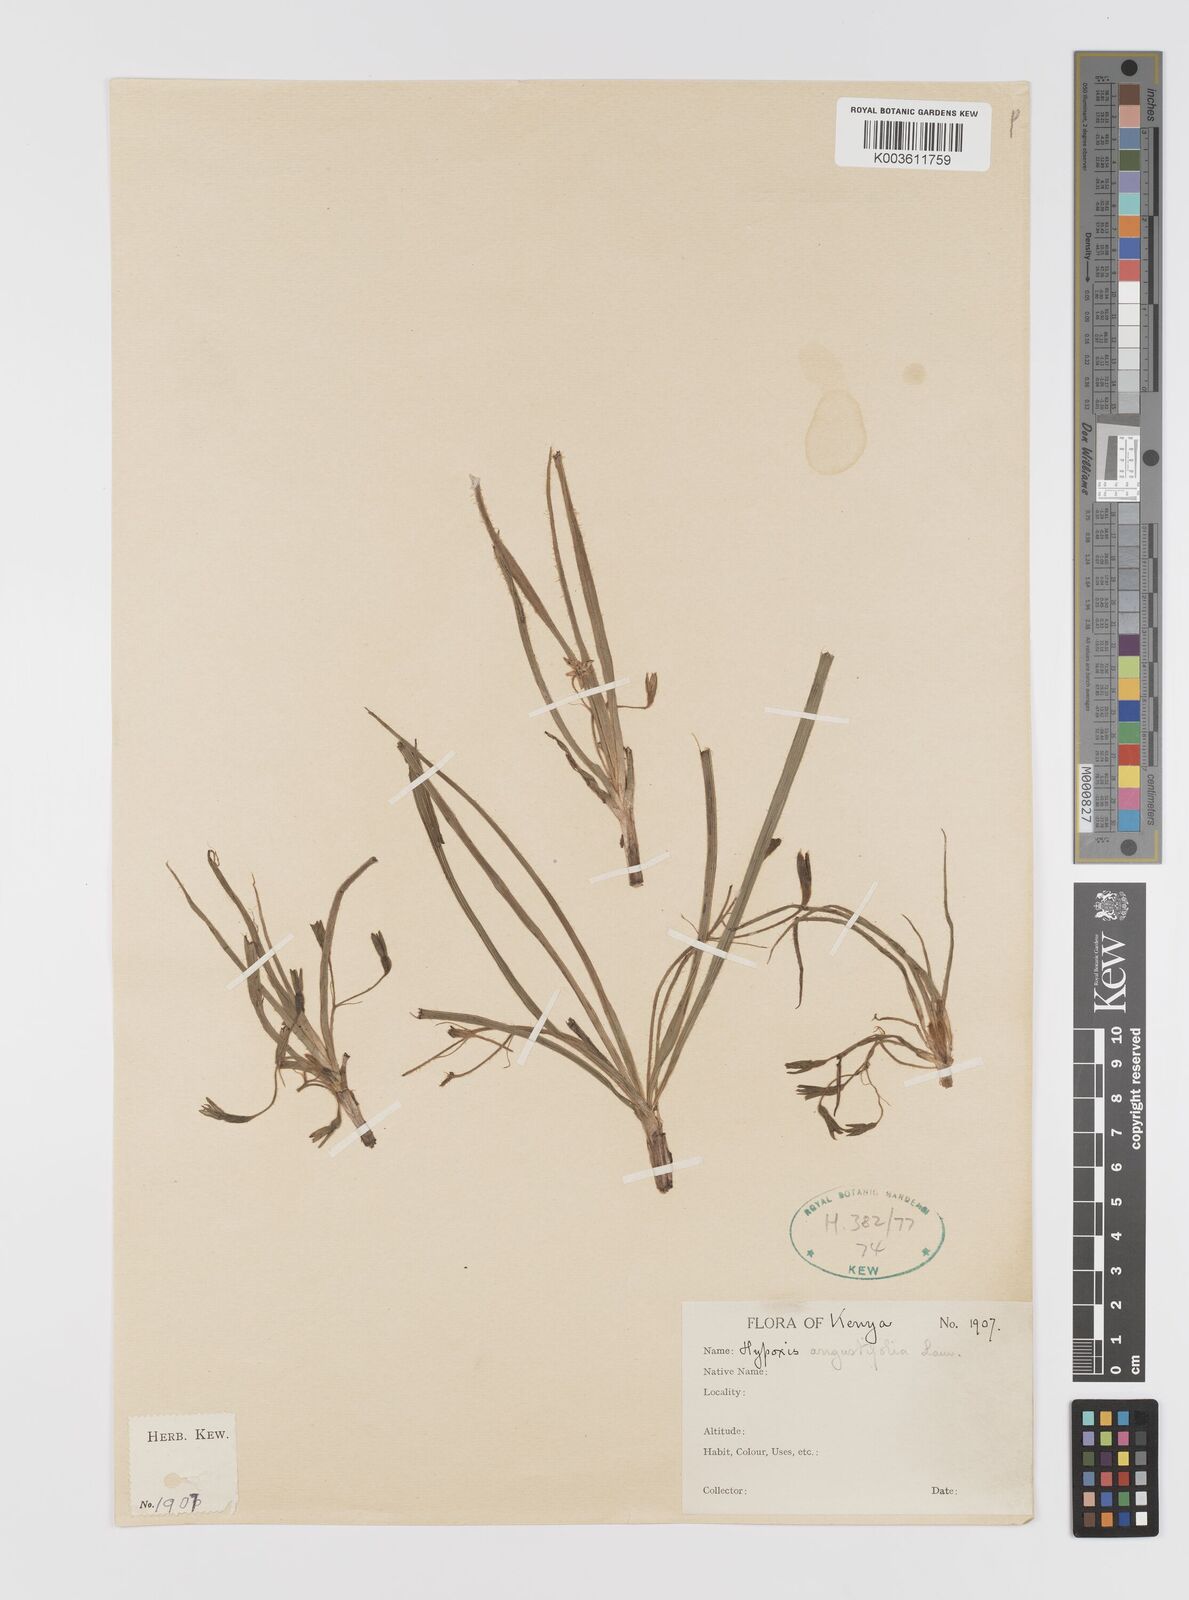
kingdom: Plantae
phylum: Tracheophyta
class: Liliopsida
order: Asparagales
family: Hypoxidaceae
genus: Hypoxis
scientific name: Hypoxis angustifolia
